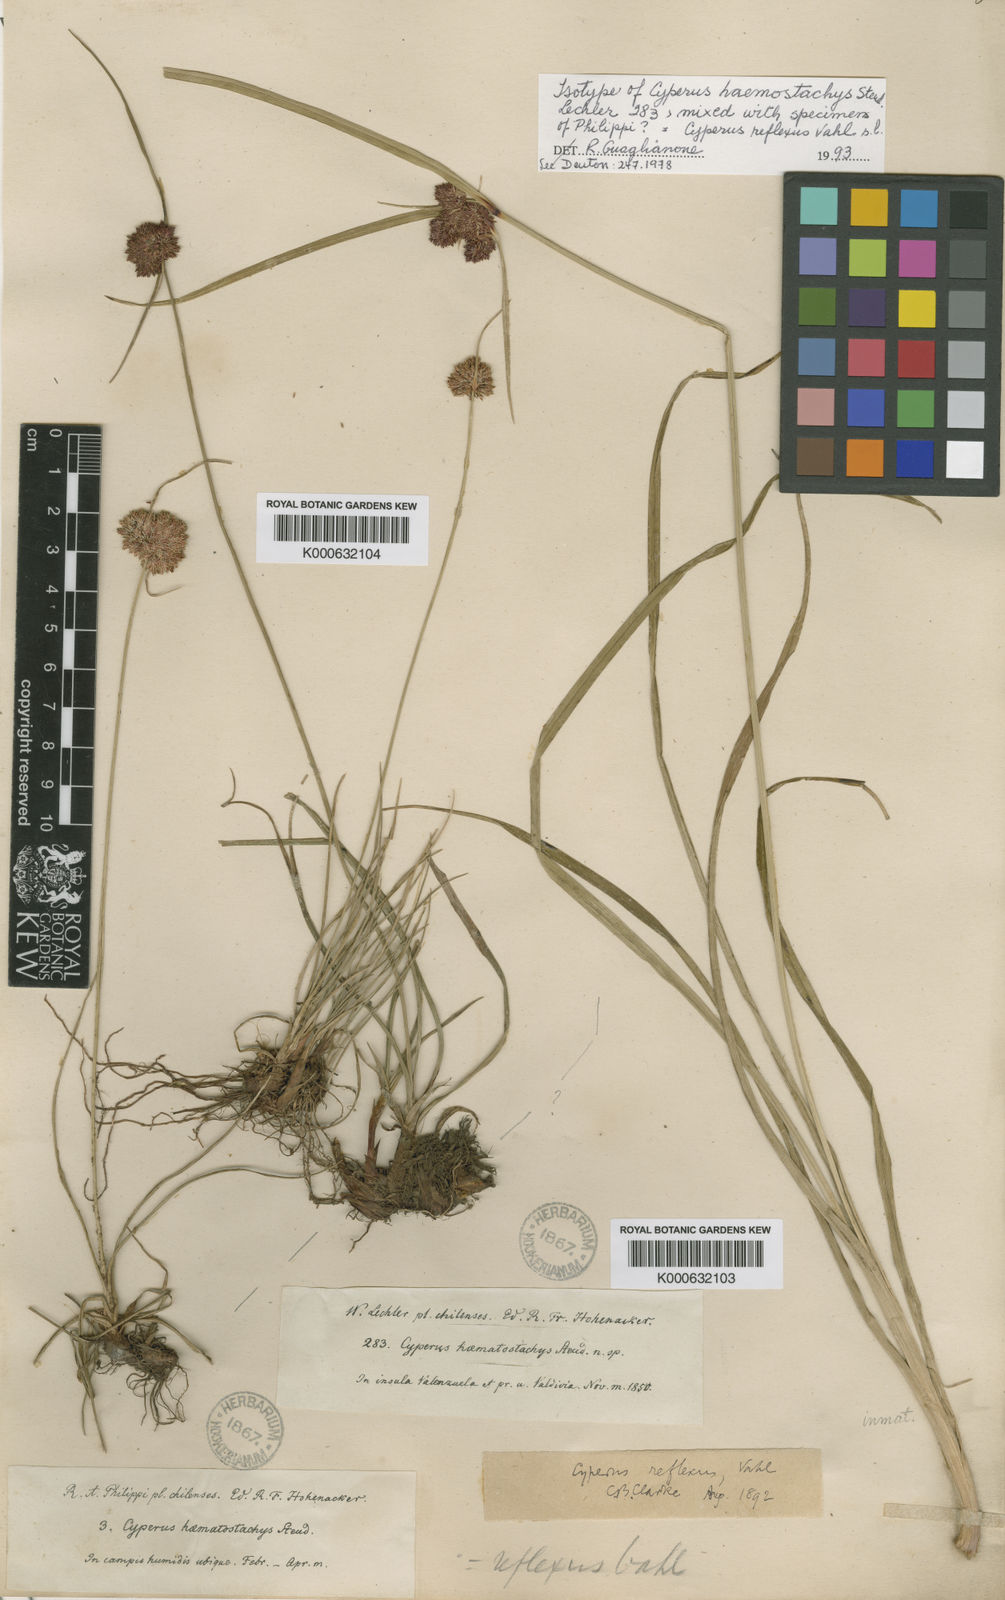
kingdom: Plantae
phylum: Tracheophyta
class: Liliopsida
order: Poales
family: Cyperaceae
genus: Cyperus
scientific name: Cyperus reflexus
